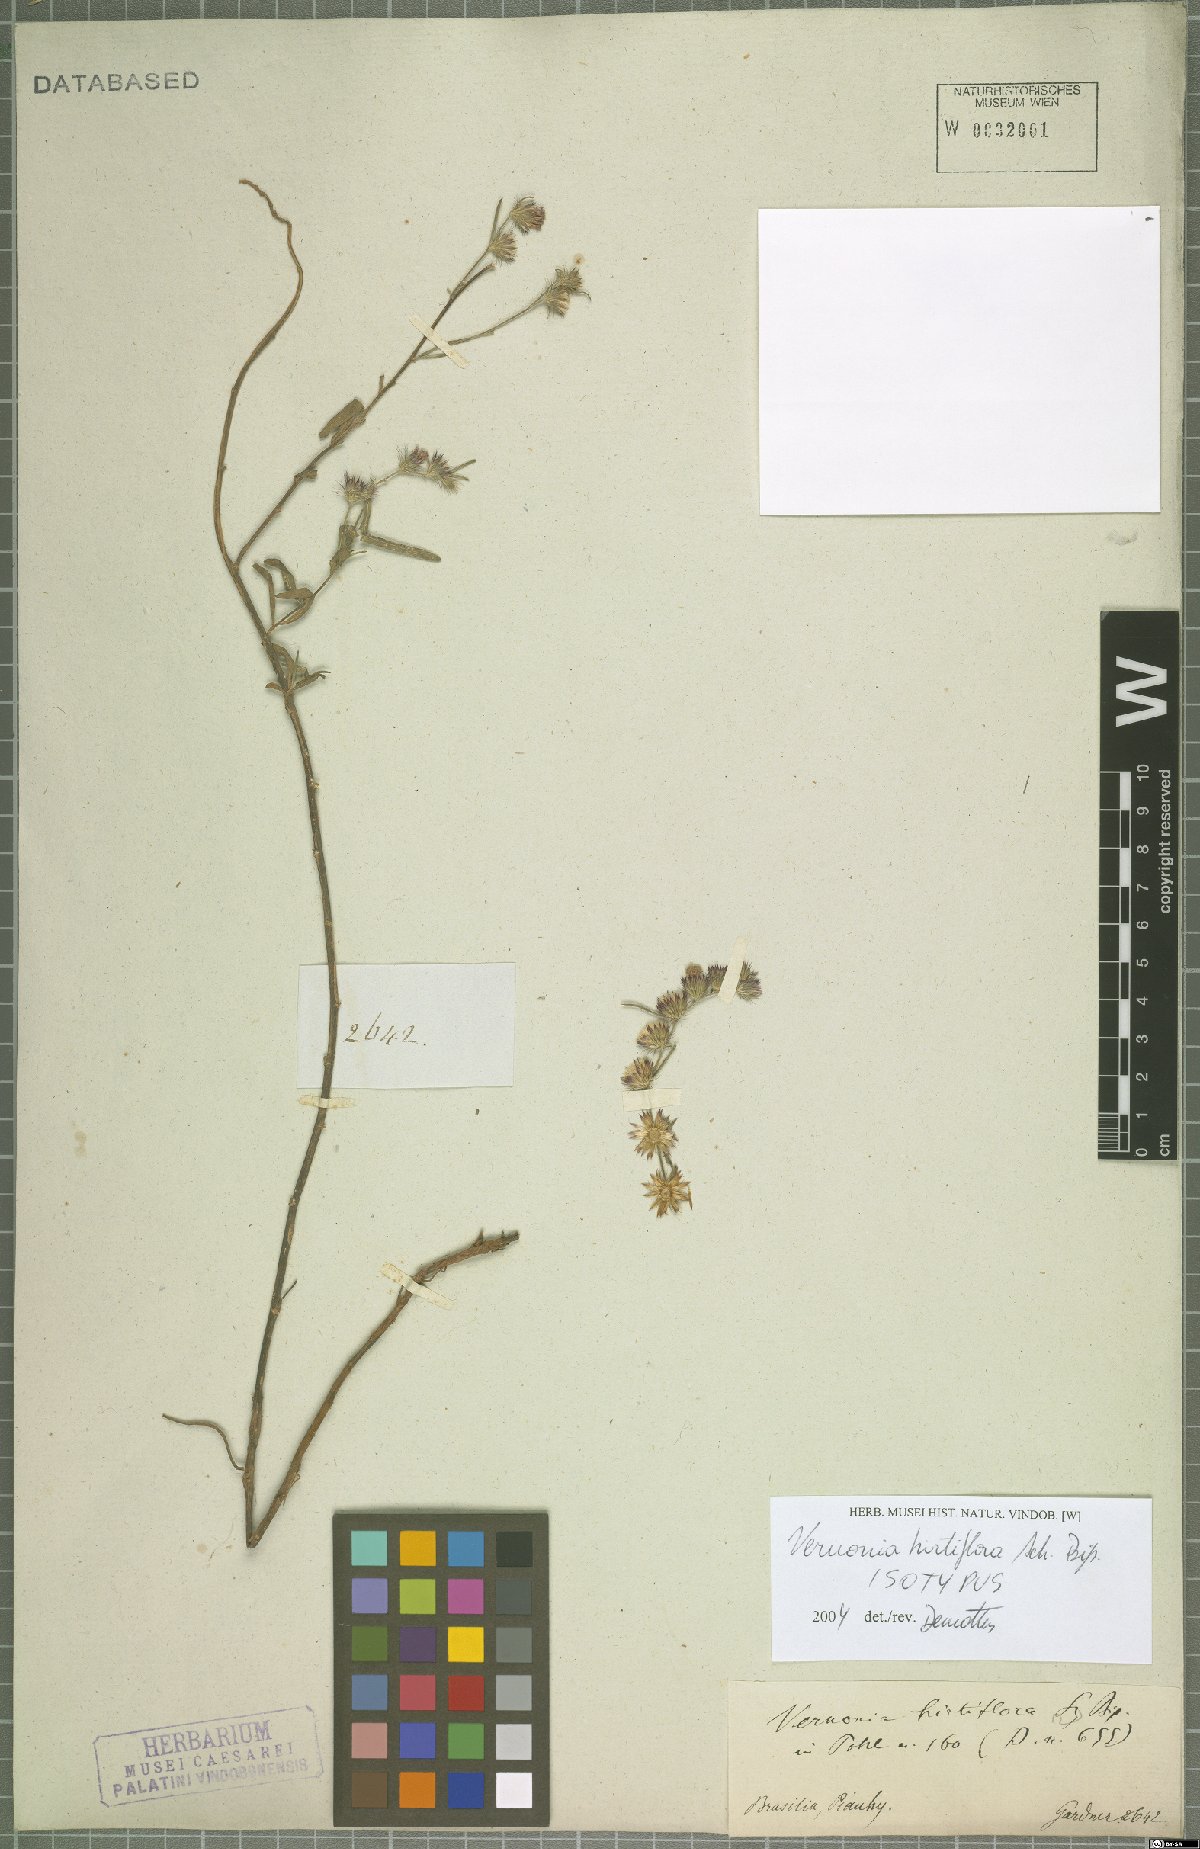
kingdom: Plantae
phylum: Tracheophyta
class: Magnoliopsida
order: Asterales
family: Asteraceae
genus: Lepidaploa
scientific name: Lepidaploa remotiflora
